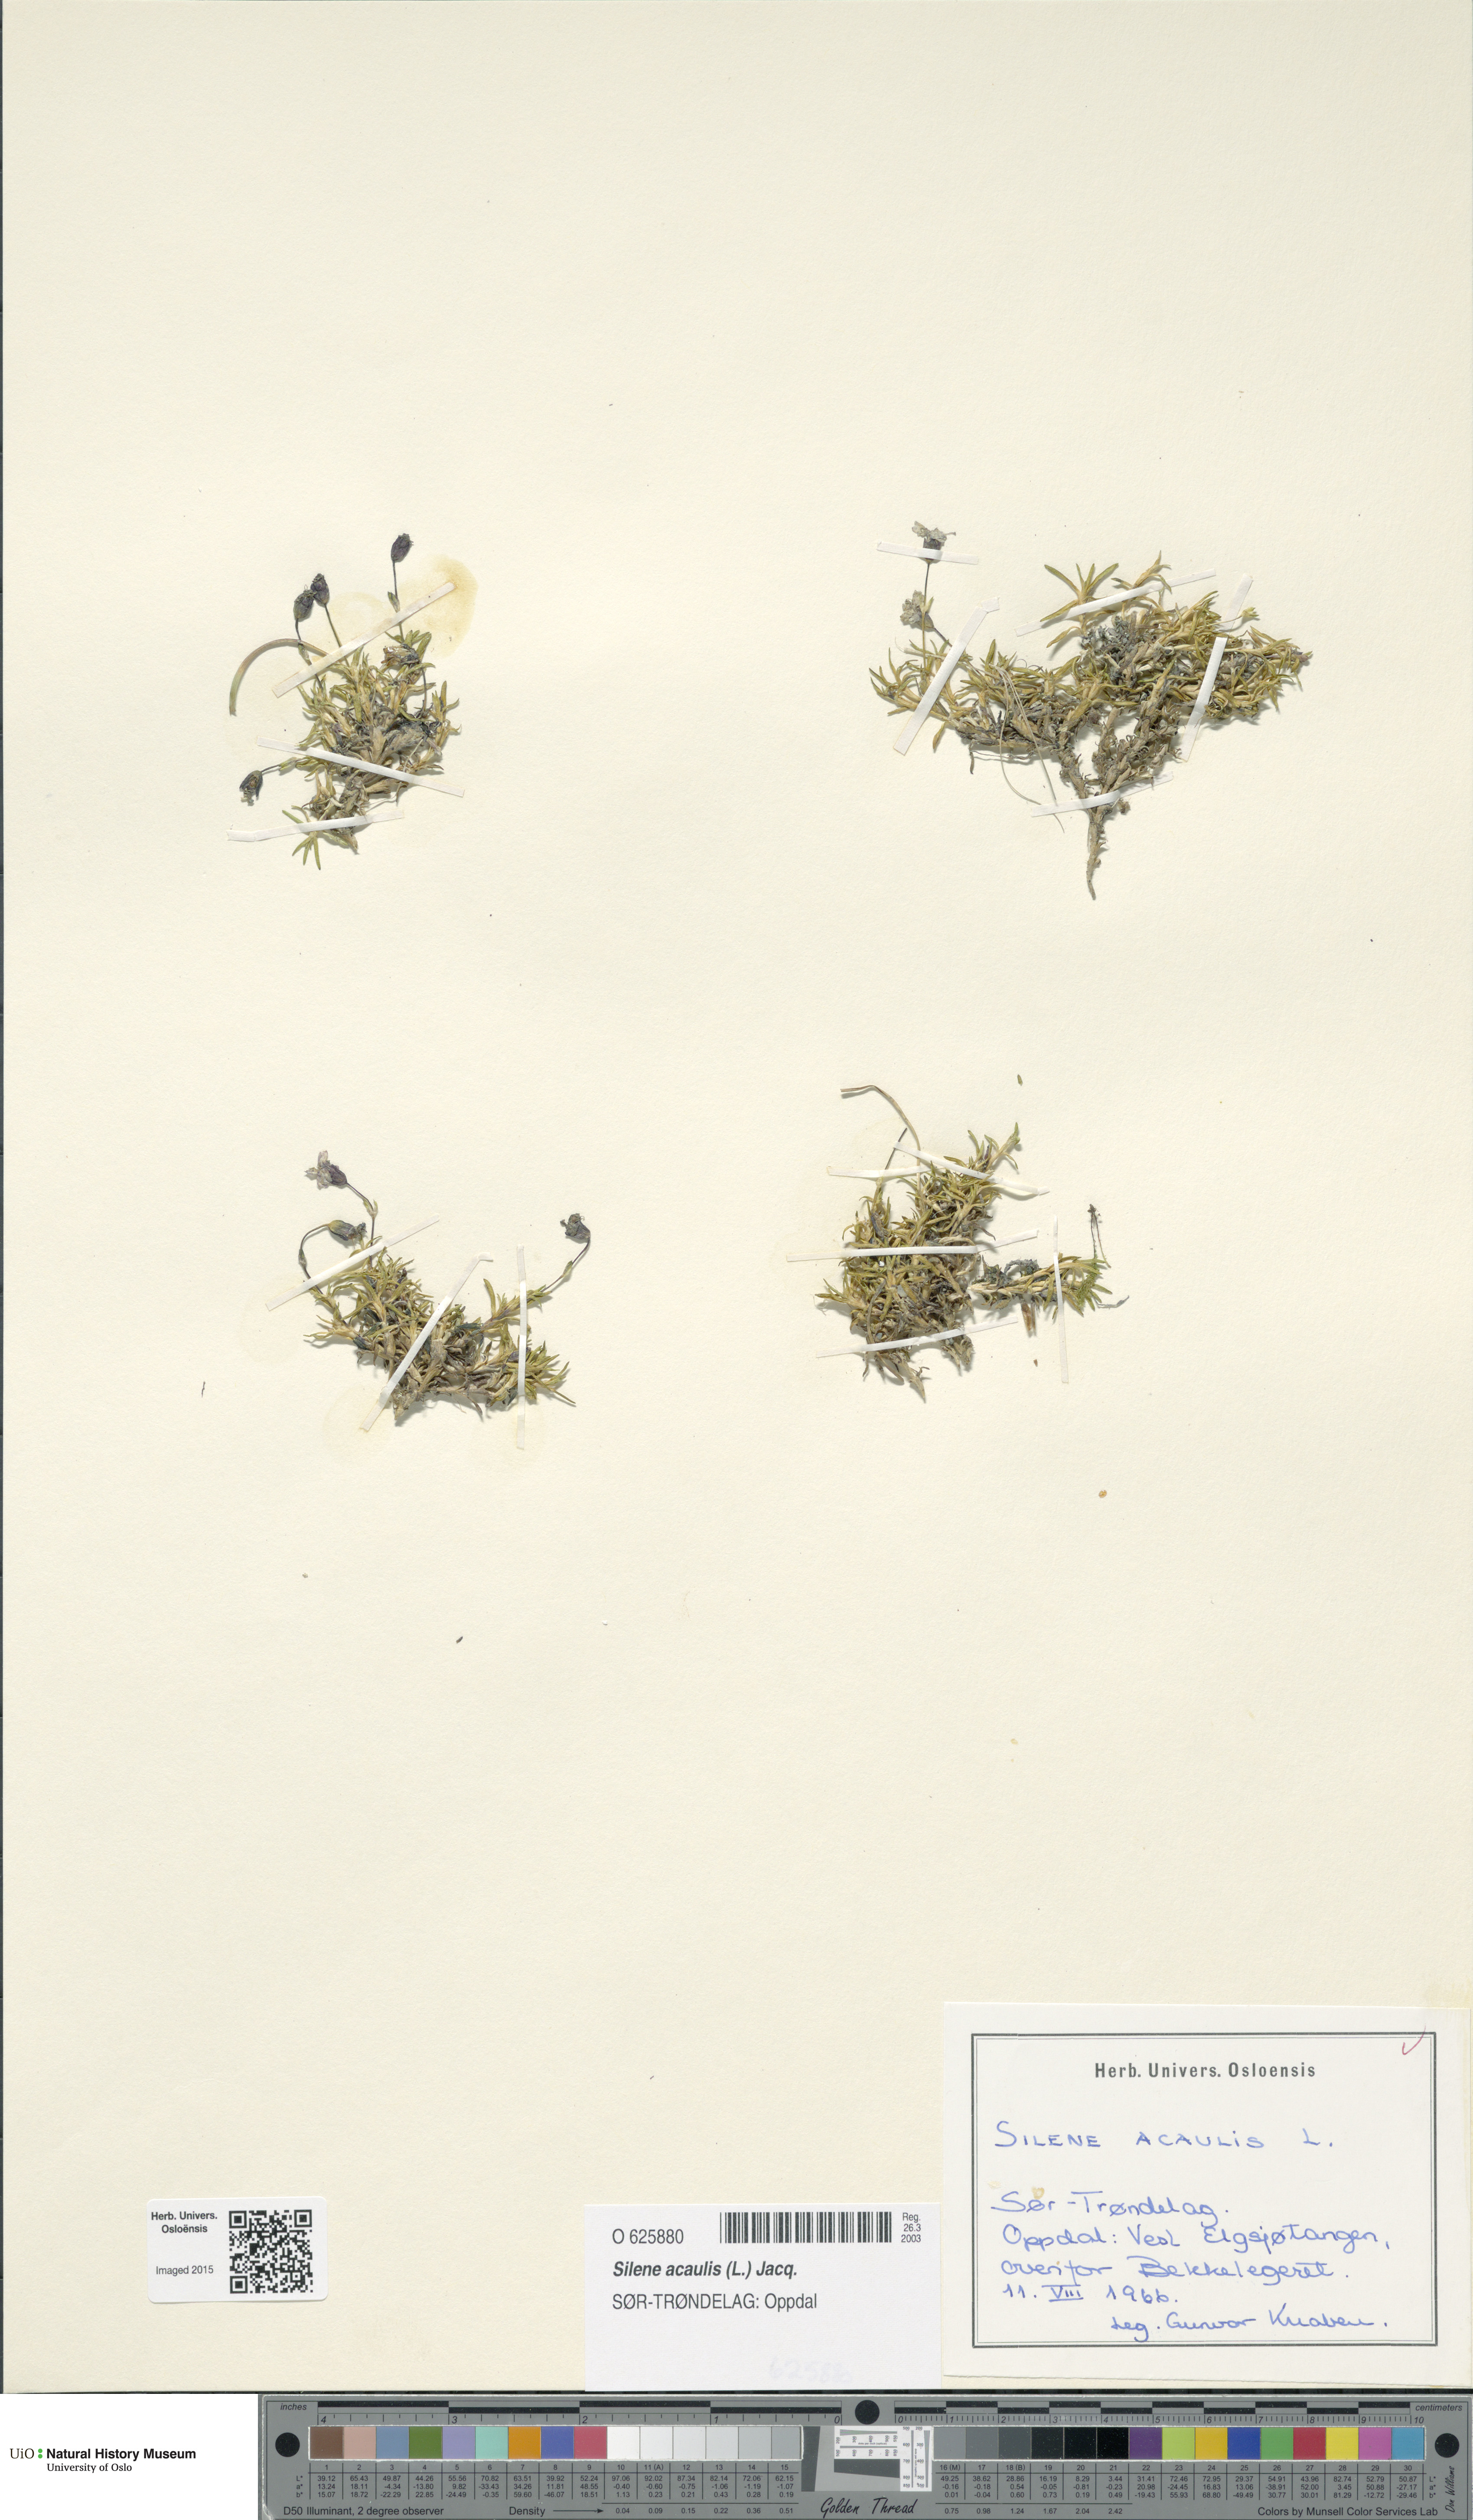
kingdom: Plantae
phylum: Tracheophyta
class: Magnoliopsida
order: Caryophyllales
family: Caryophyllaceae
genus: Silene
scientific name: Silene acaulis
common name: Moss campion
